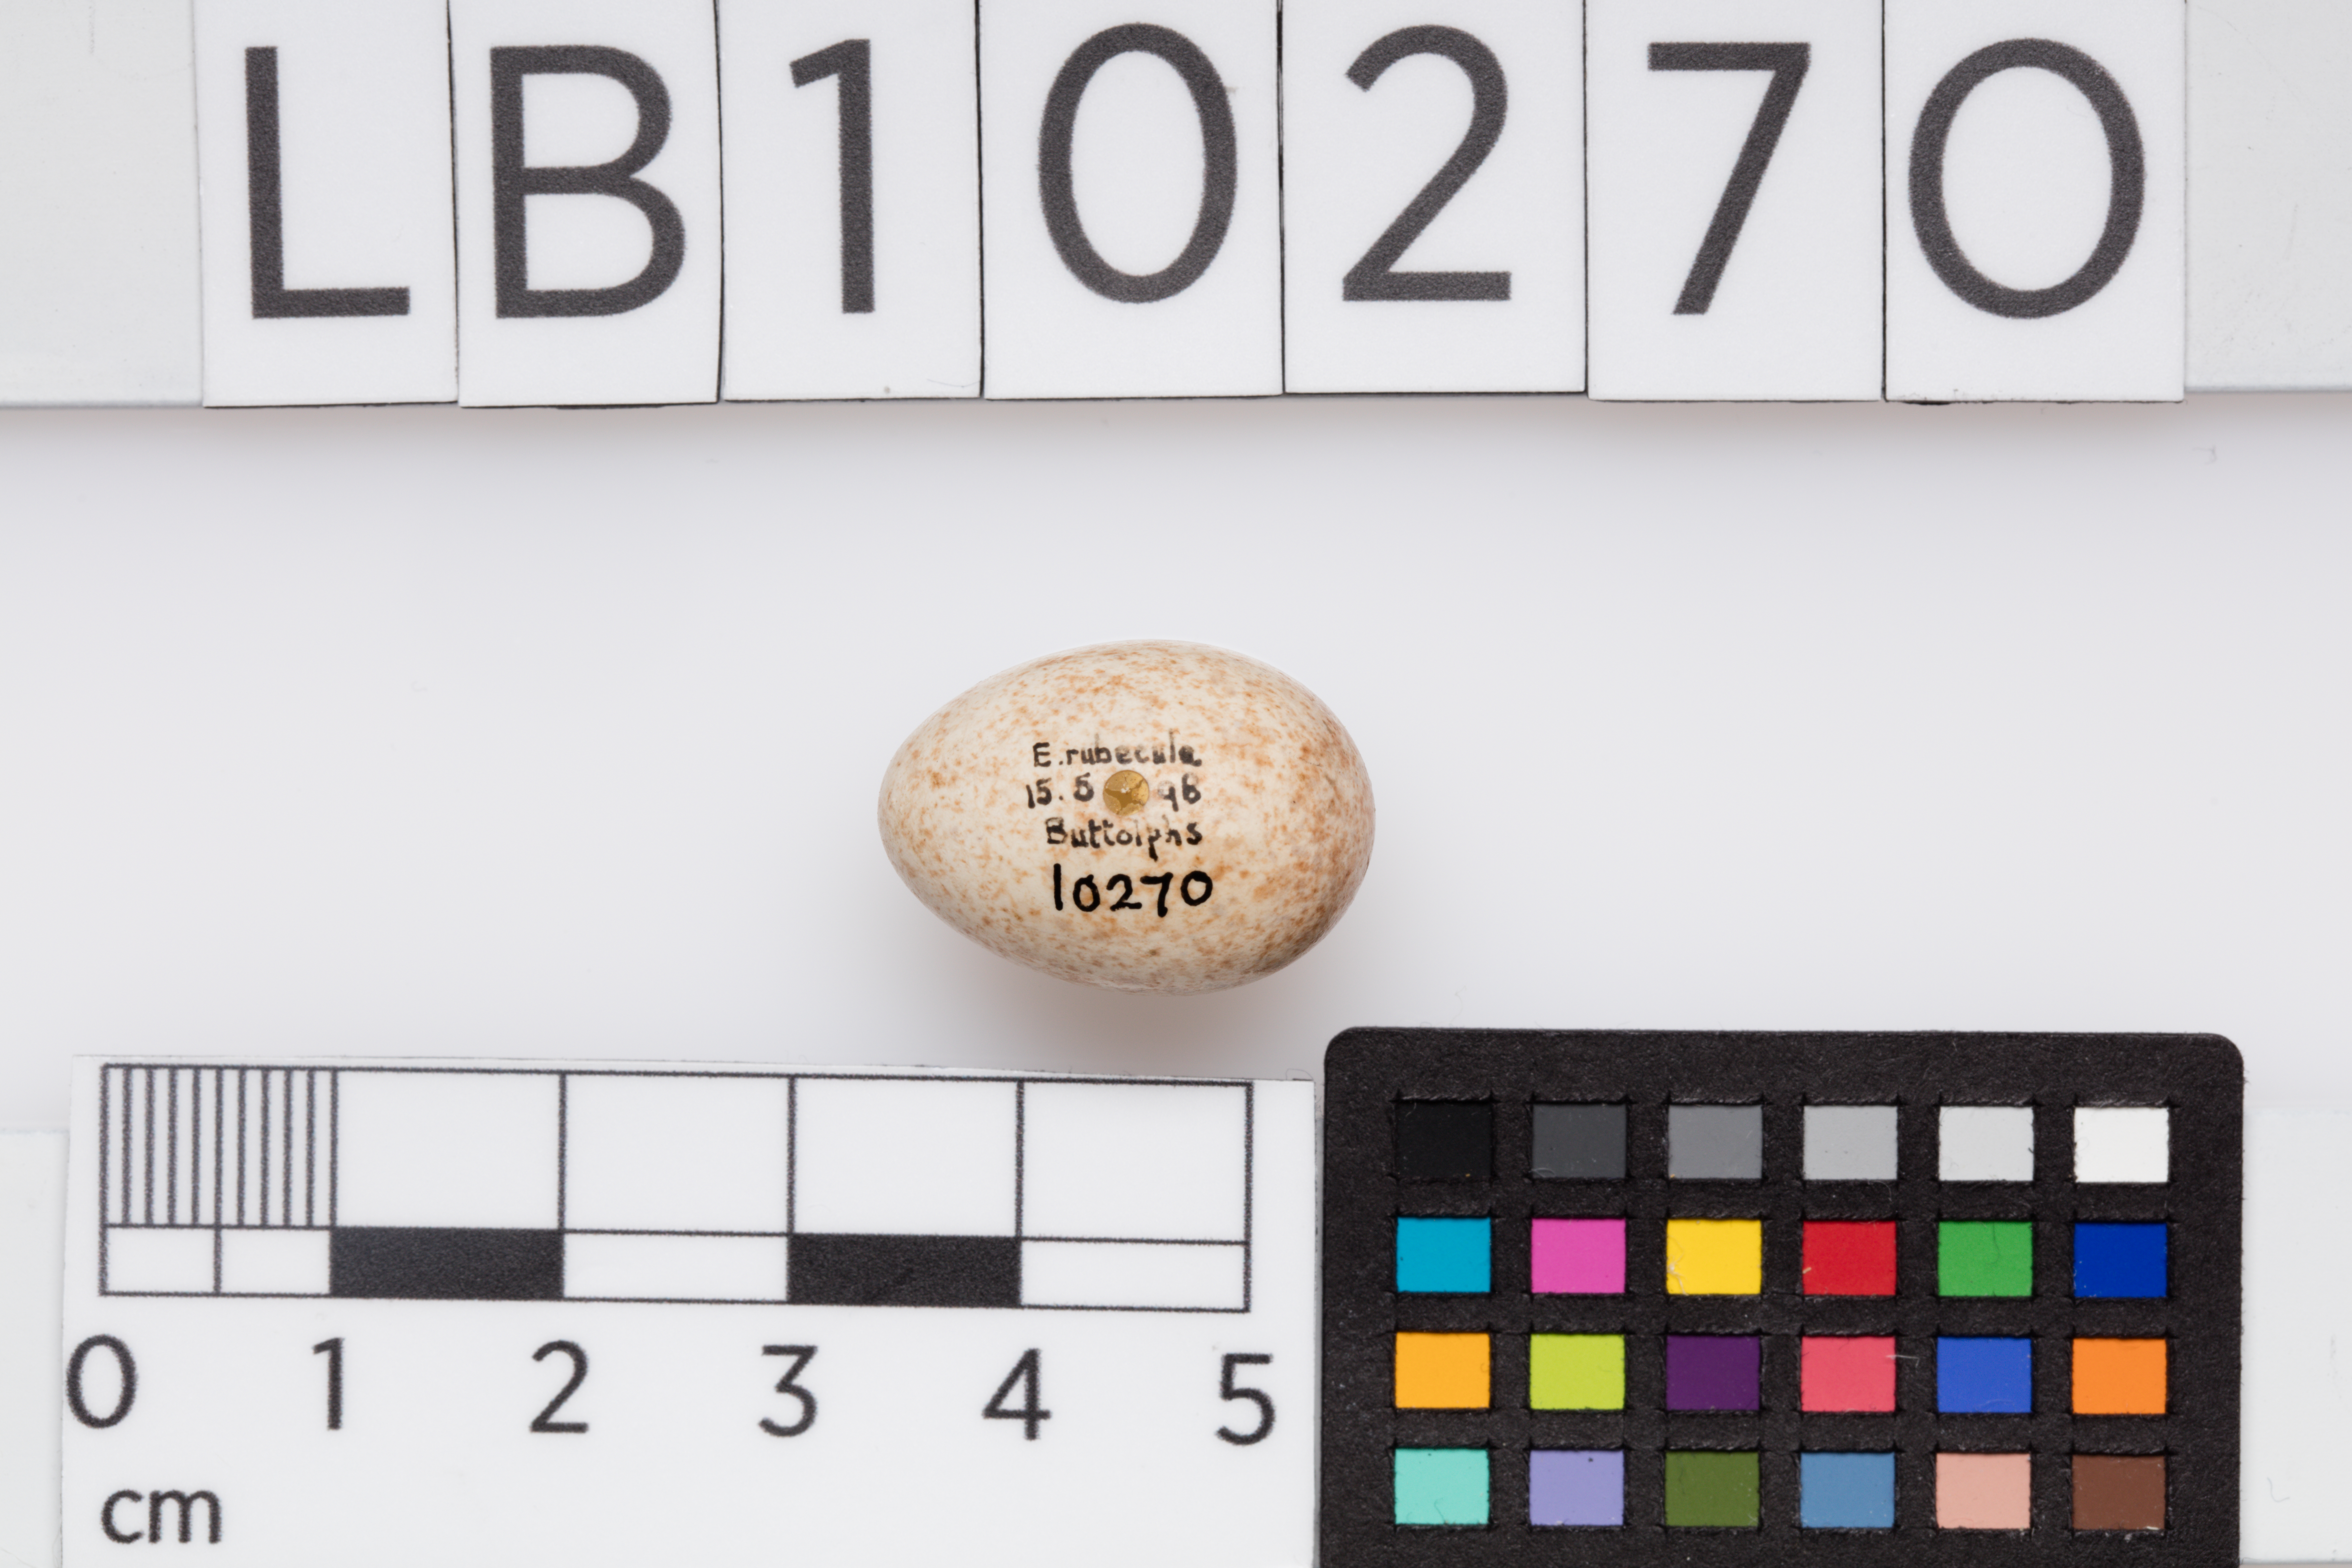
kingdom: Animalia
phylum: Chordata
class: Aves
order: Passeriformes
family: Muscicapidae
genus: Erithacus
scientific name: Erithacus rubecula
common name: European robin
